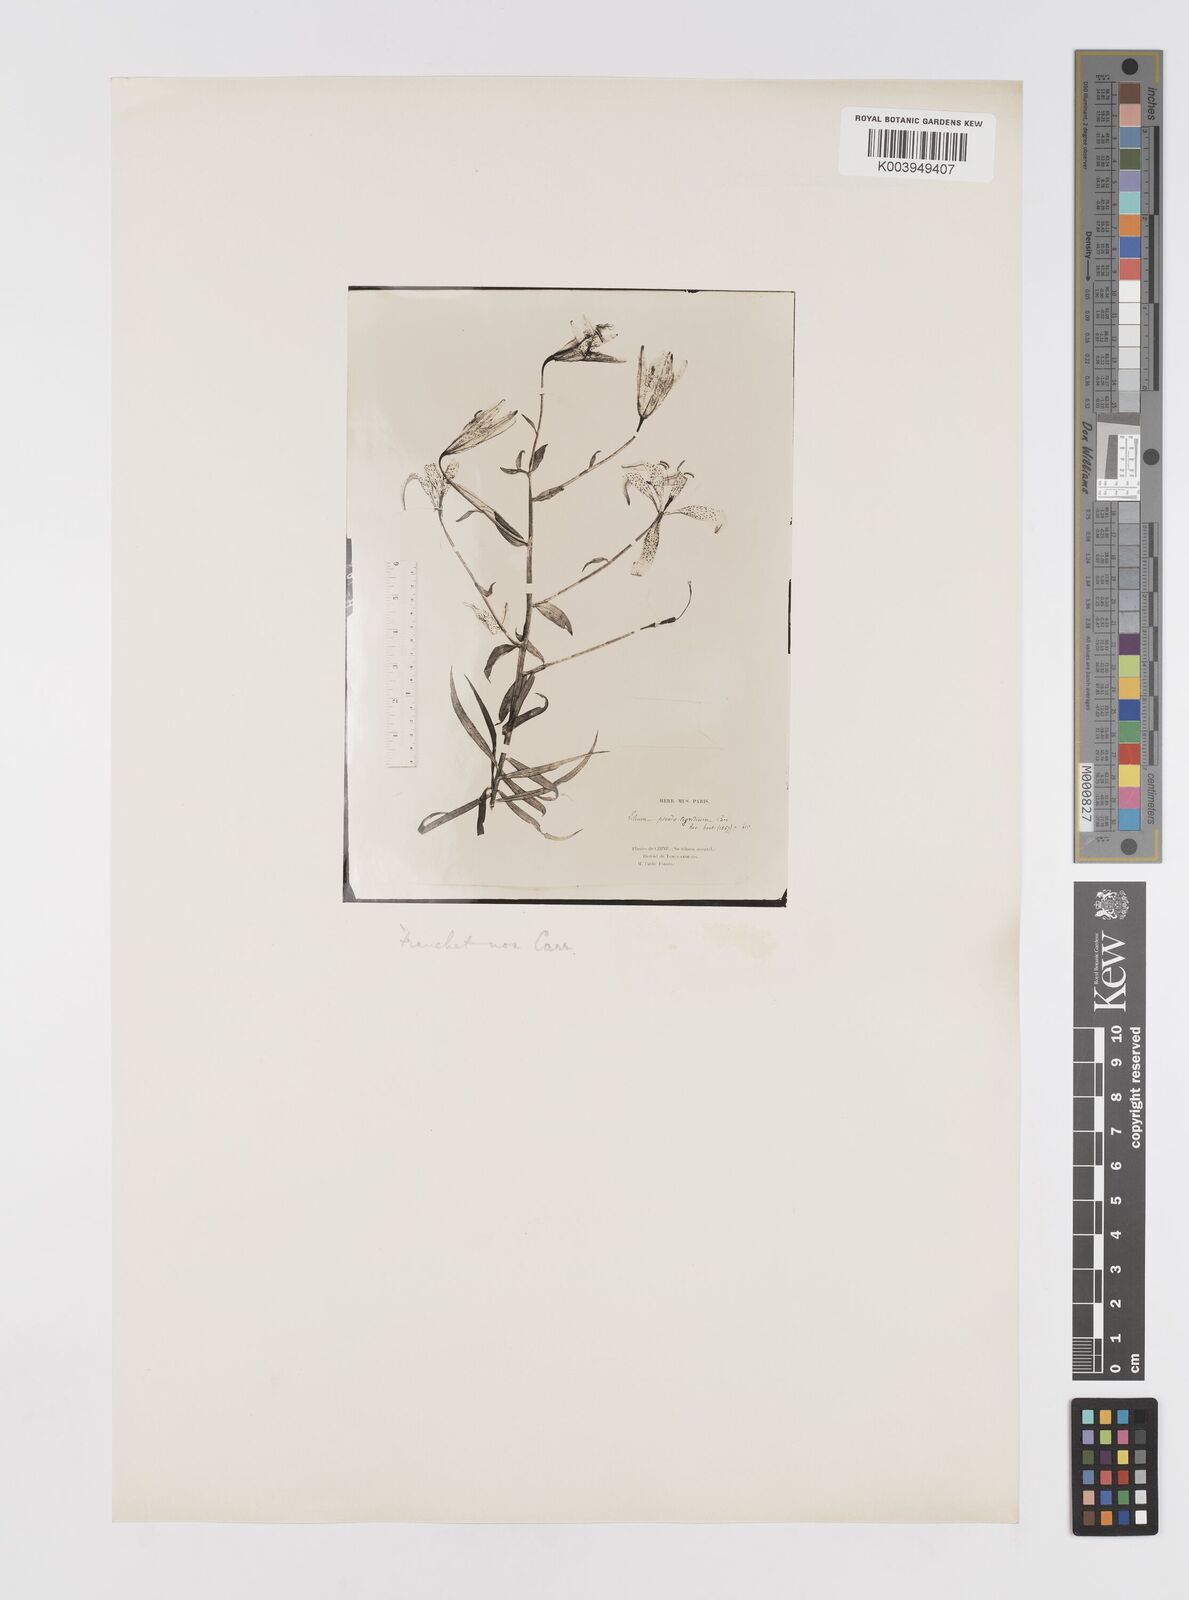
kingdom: Plantae
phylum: Tracheophyta
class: Liliopsida
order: Liliales
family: Liliaceae
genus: Lilium
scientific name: Lilium davidii
